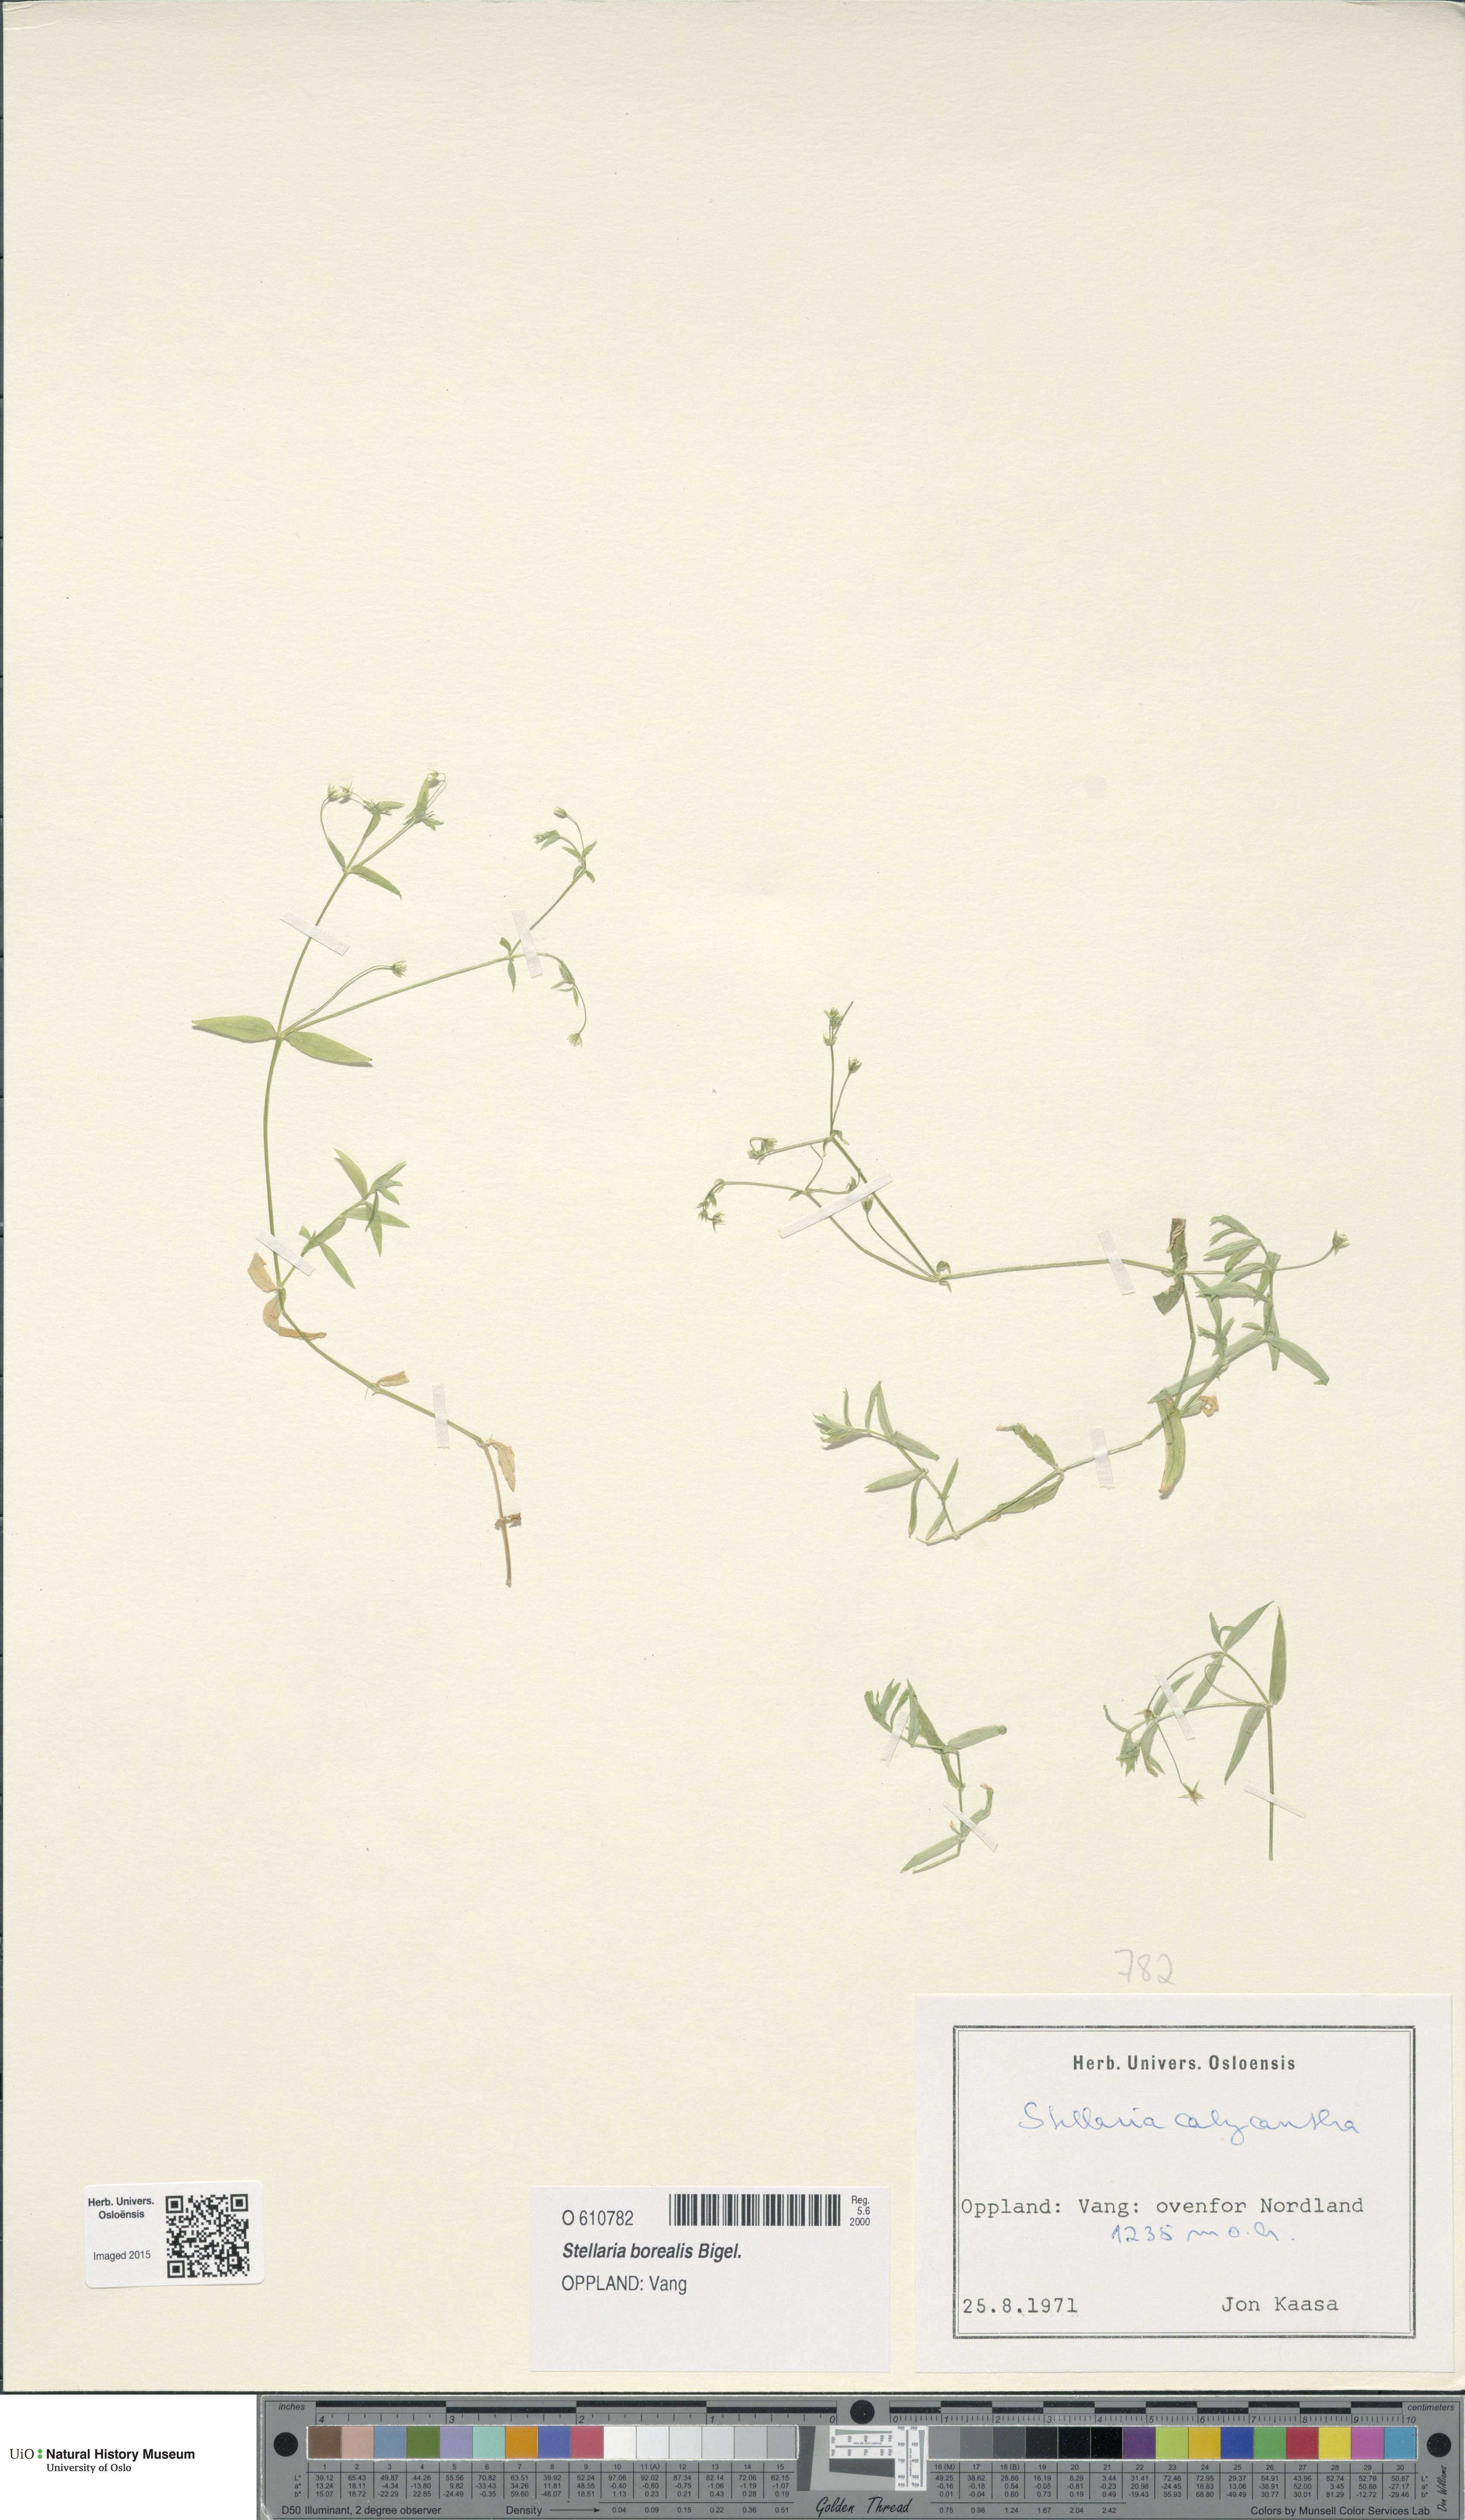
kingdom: Plantae
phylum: Tracheophyta
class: Magnoliopsida
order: Caryophyllales
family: Caryophyllaceae
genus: Stellaria
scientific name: Stellaria borealis
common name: Boreal starwort
